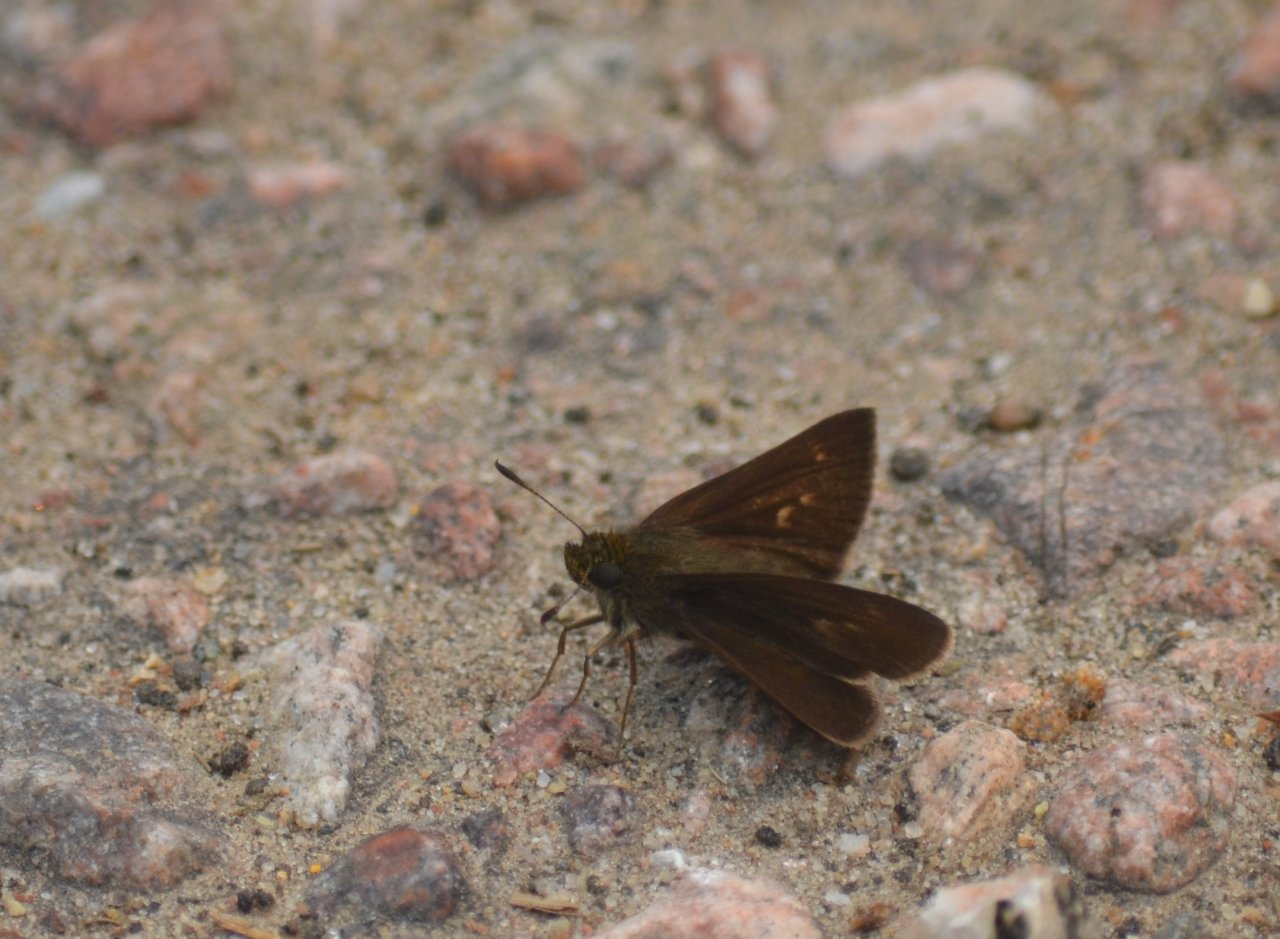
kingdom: Animalia
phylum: Arthropoda
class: Insecta
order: Lepidoptera
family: Hesperiidae
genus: Euphyes
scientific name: Euphyes vestris
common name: Dun Skipper
